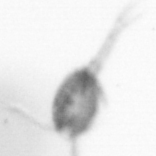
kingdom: Animalia
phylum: Arthropoda
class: Copepoda
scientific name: Copepoda
